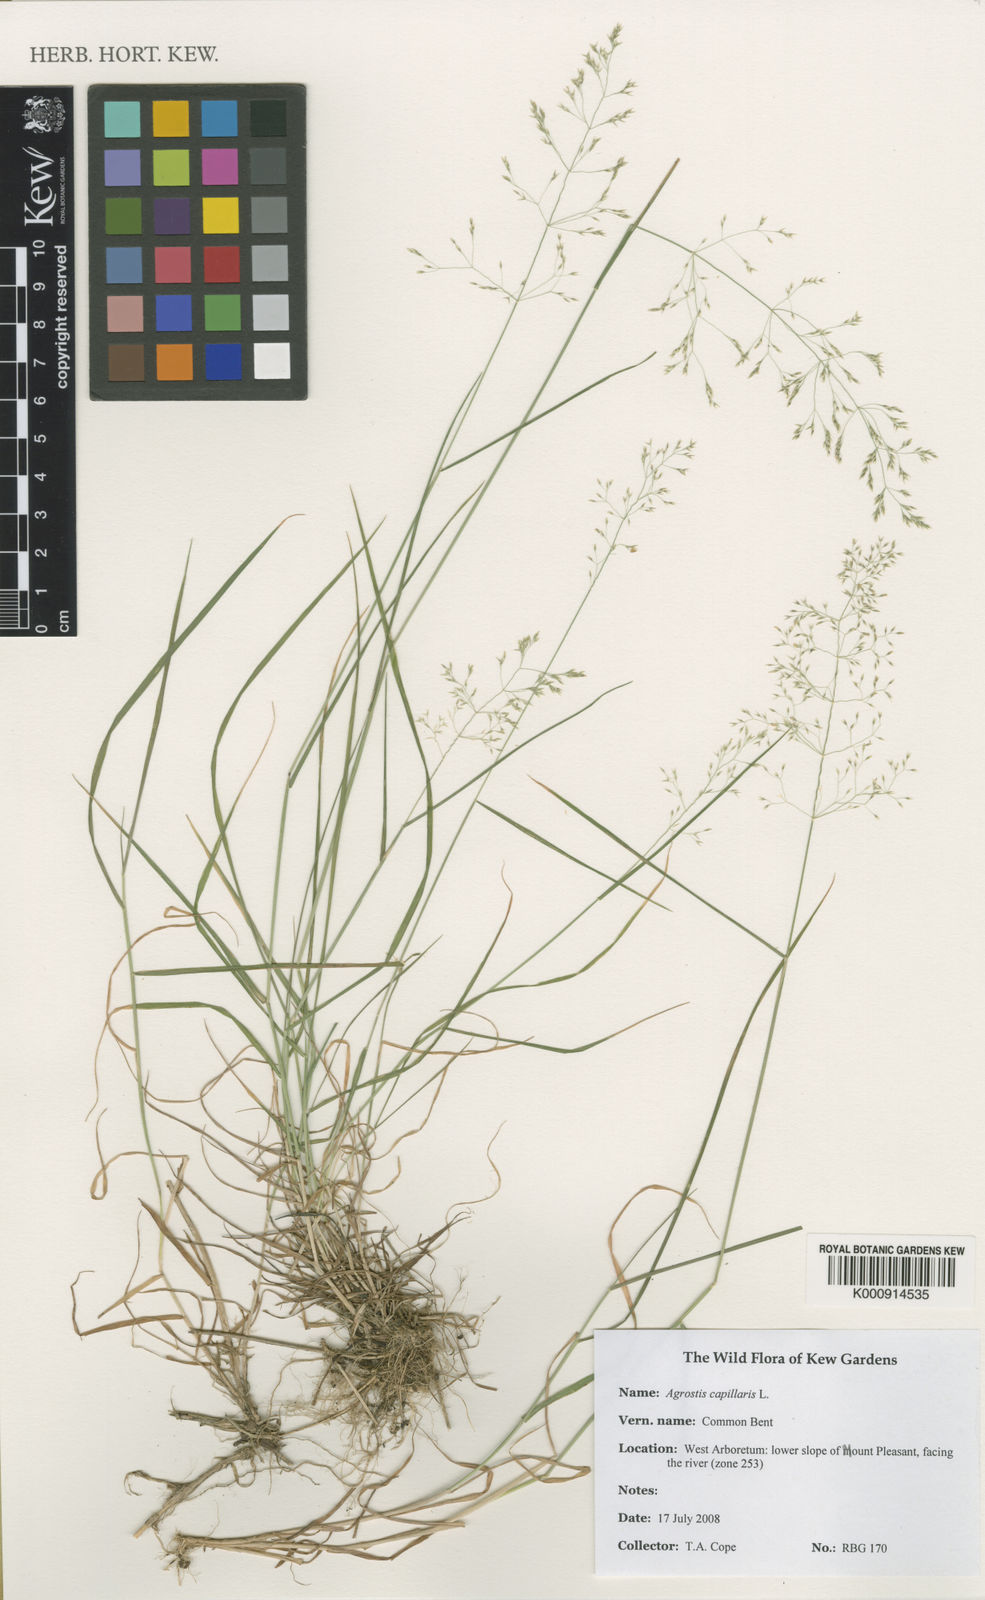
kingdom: Plantae
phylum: Tracheophyta
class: Liliopsida
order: Poales
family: Poaceae
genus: Agrostis
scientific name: Agrostis capillaris
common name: Colonial bentgrass
